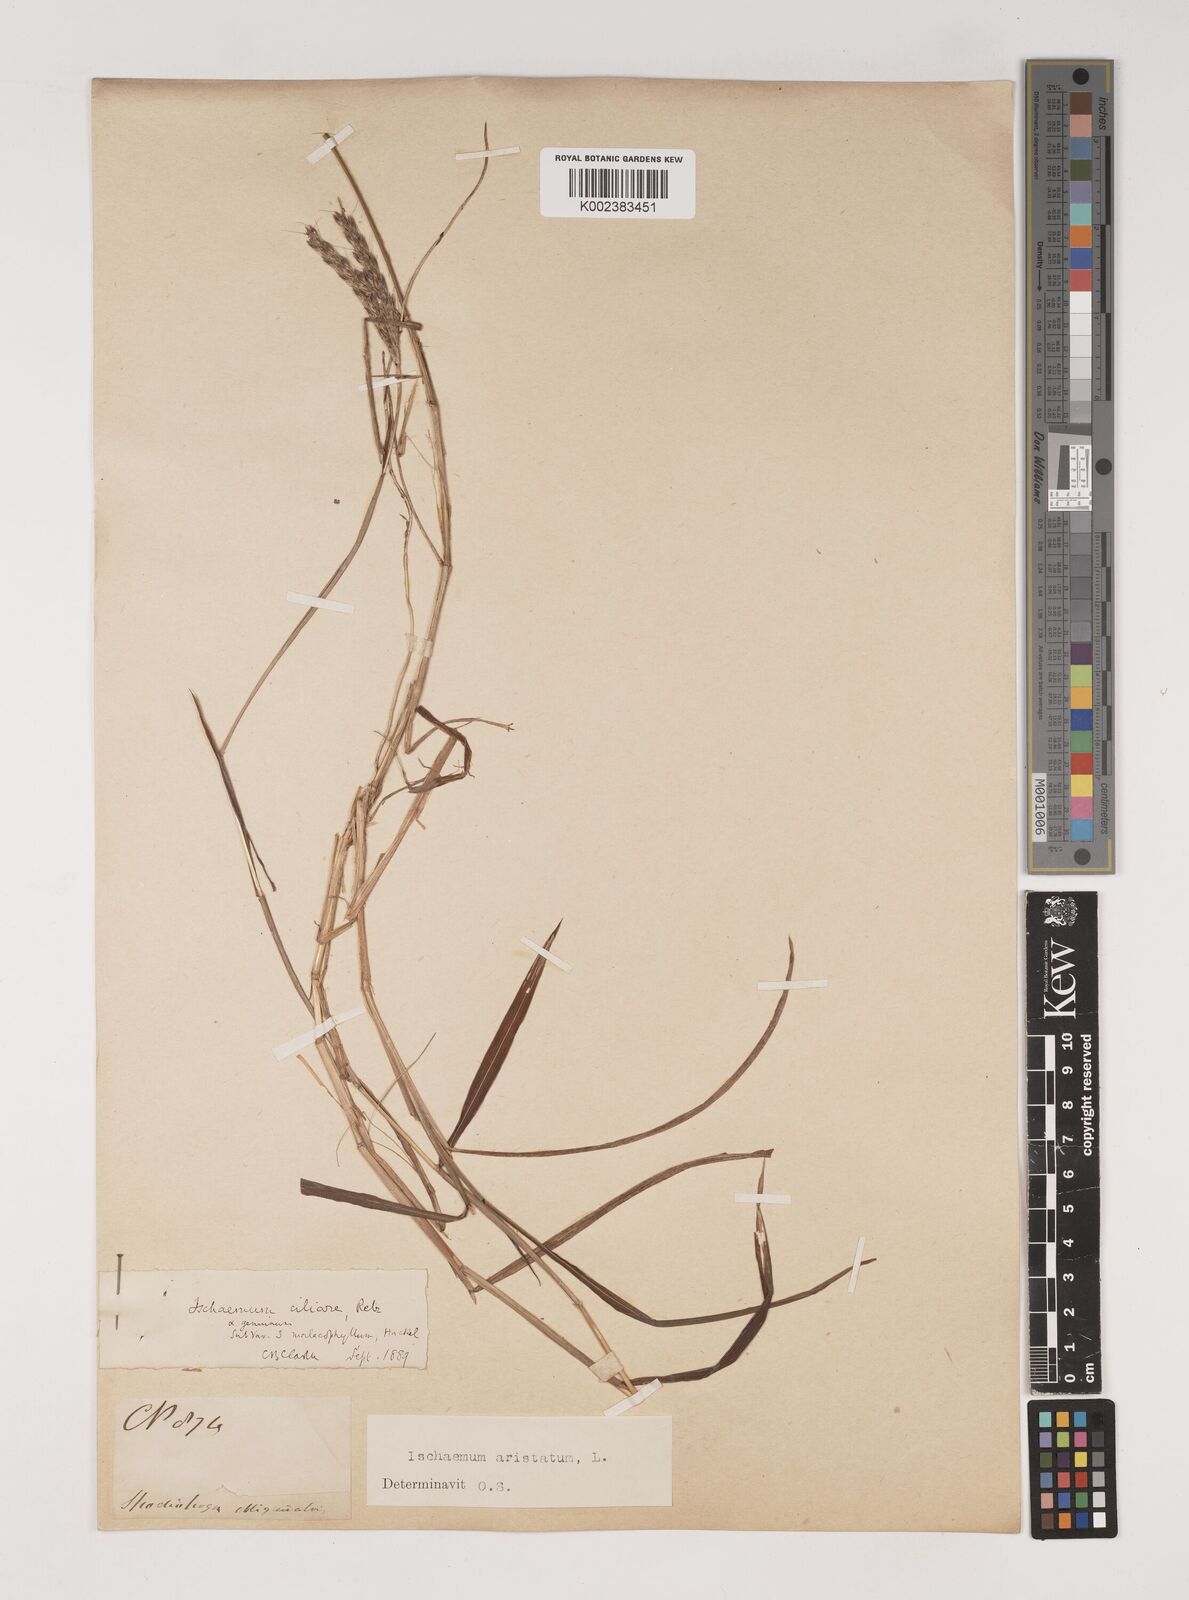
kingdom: Plantae
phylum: Tracheophyta
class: Liliopsida
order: Poales
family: Poaceae
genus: Polytrias
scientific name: Polytrias indica
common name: Indian murainagrass
